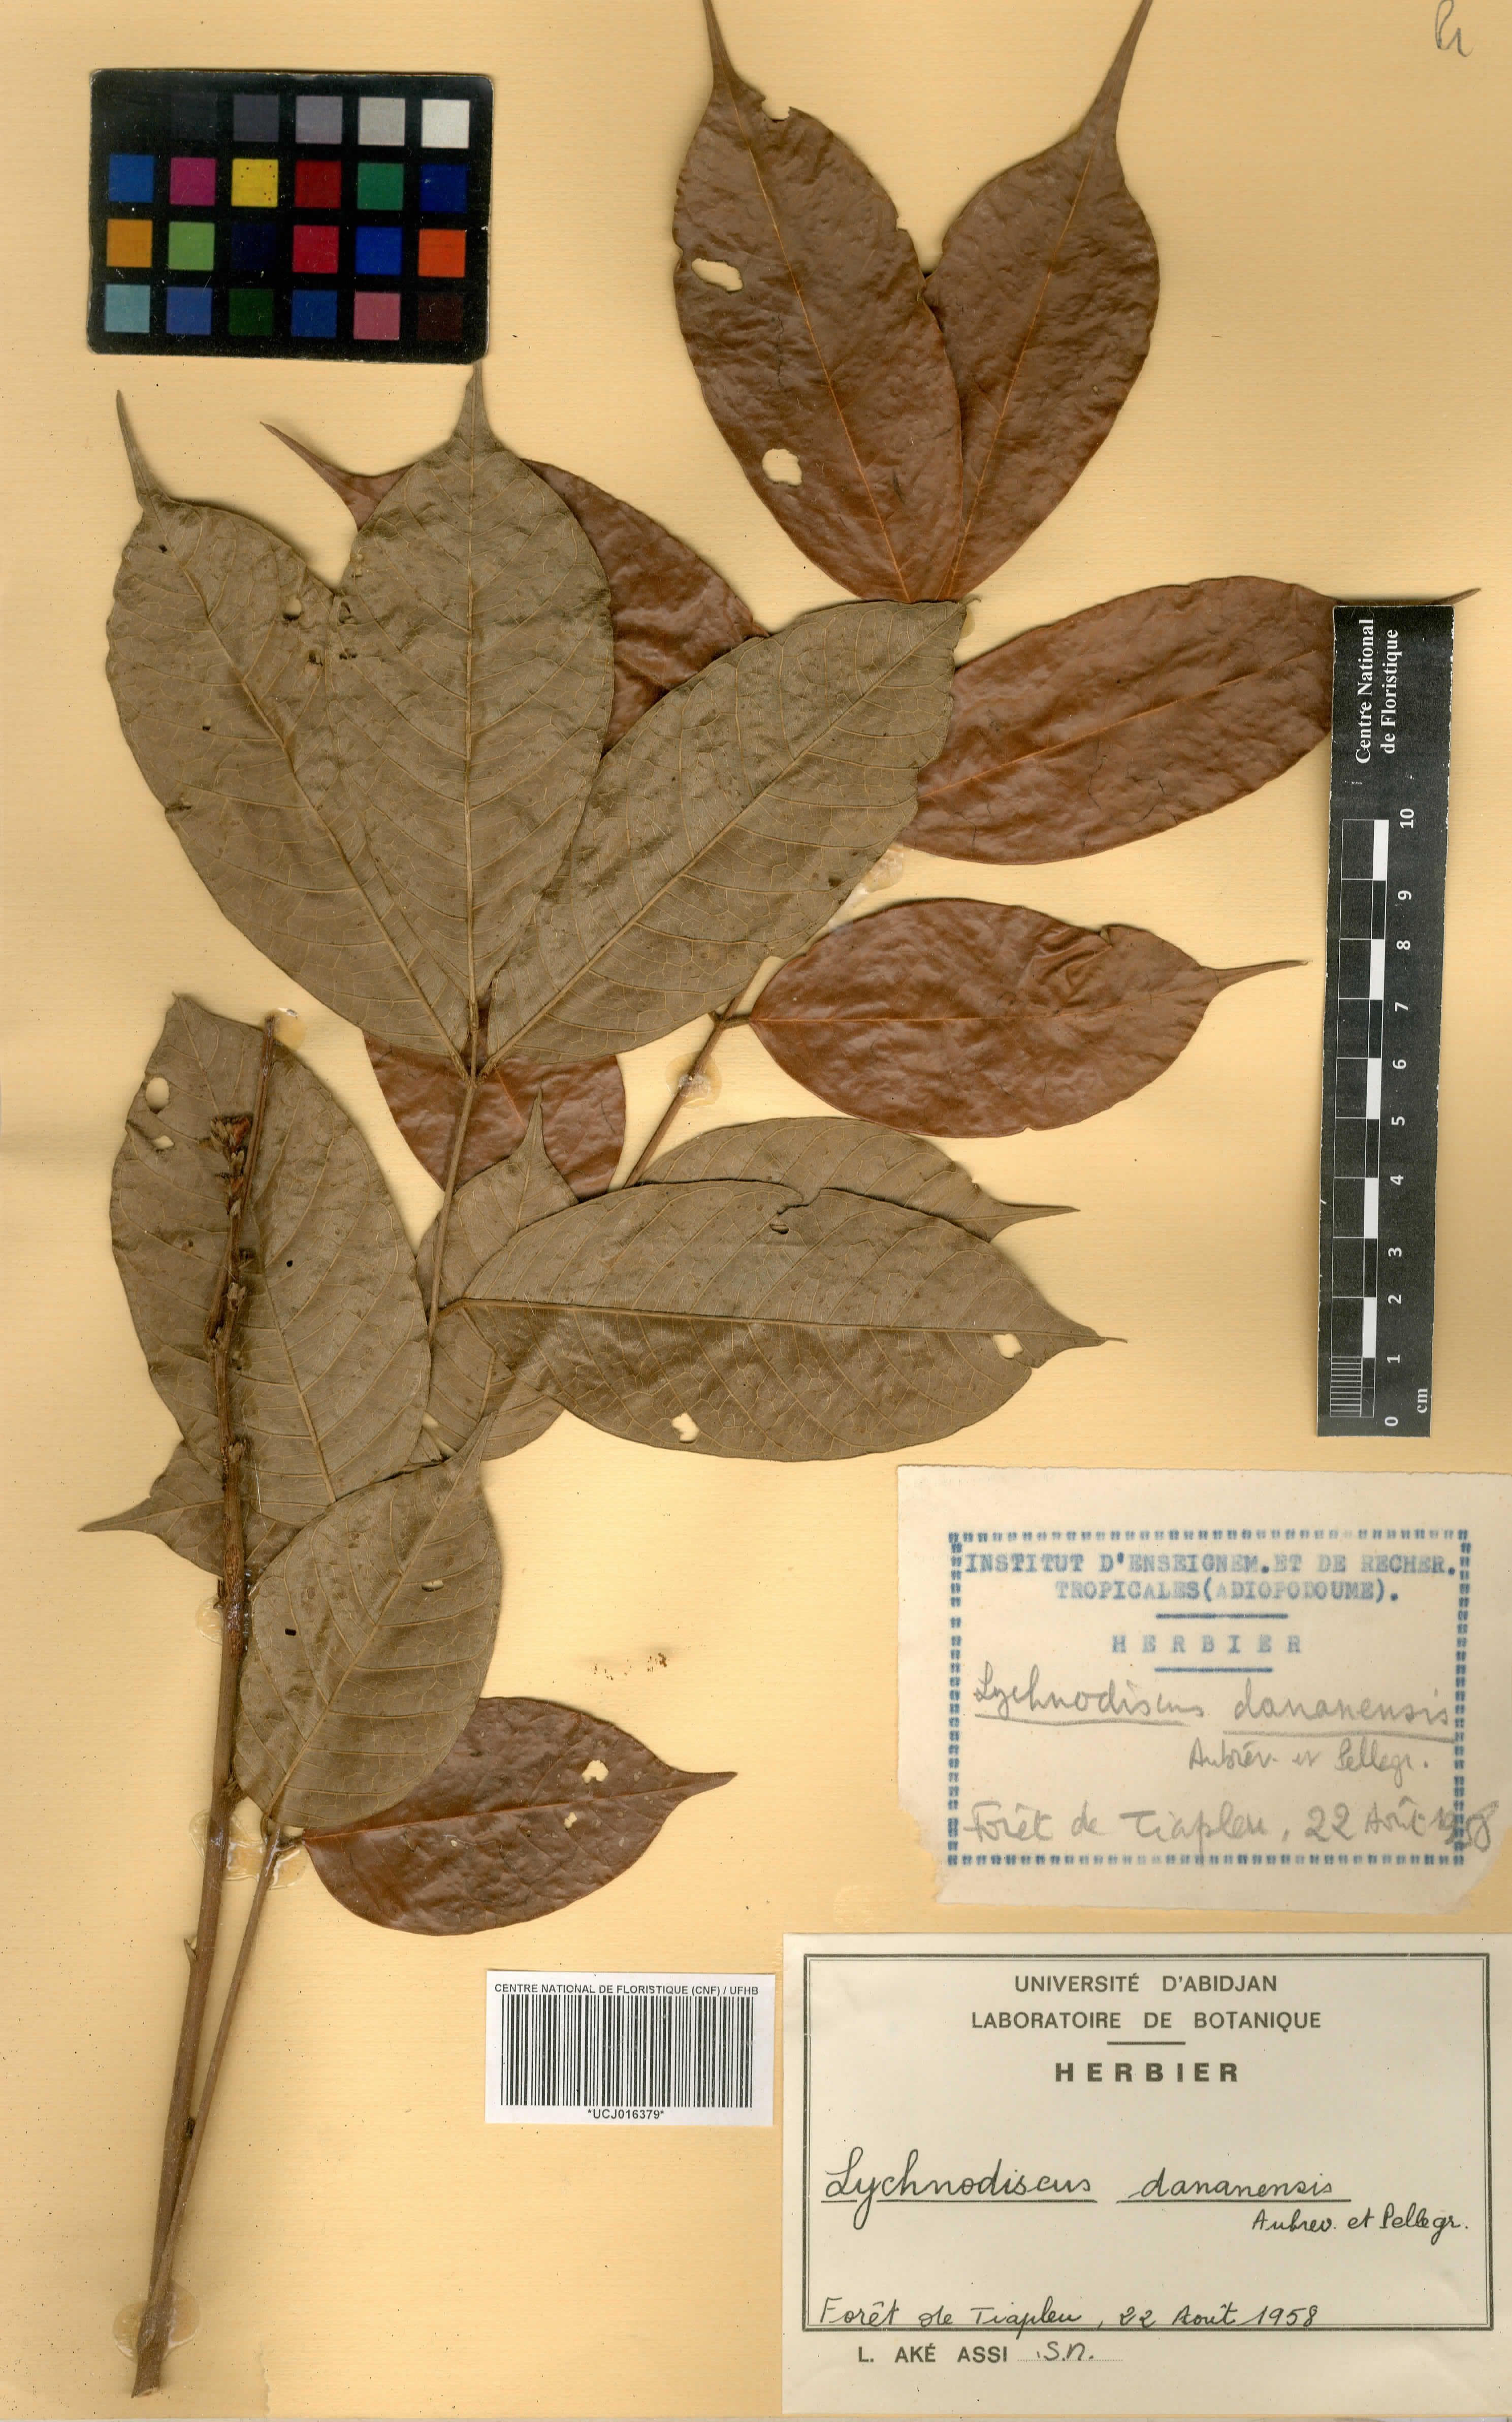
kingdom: Plantae
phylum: Tracheophyta
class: Magnoliopsida
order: Sapindales
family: Sapindaceae
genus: Lychnodiscus
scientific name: Lychnodiscus dananensis
